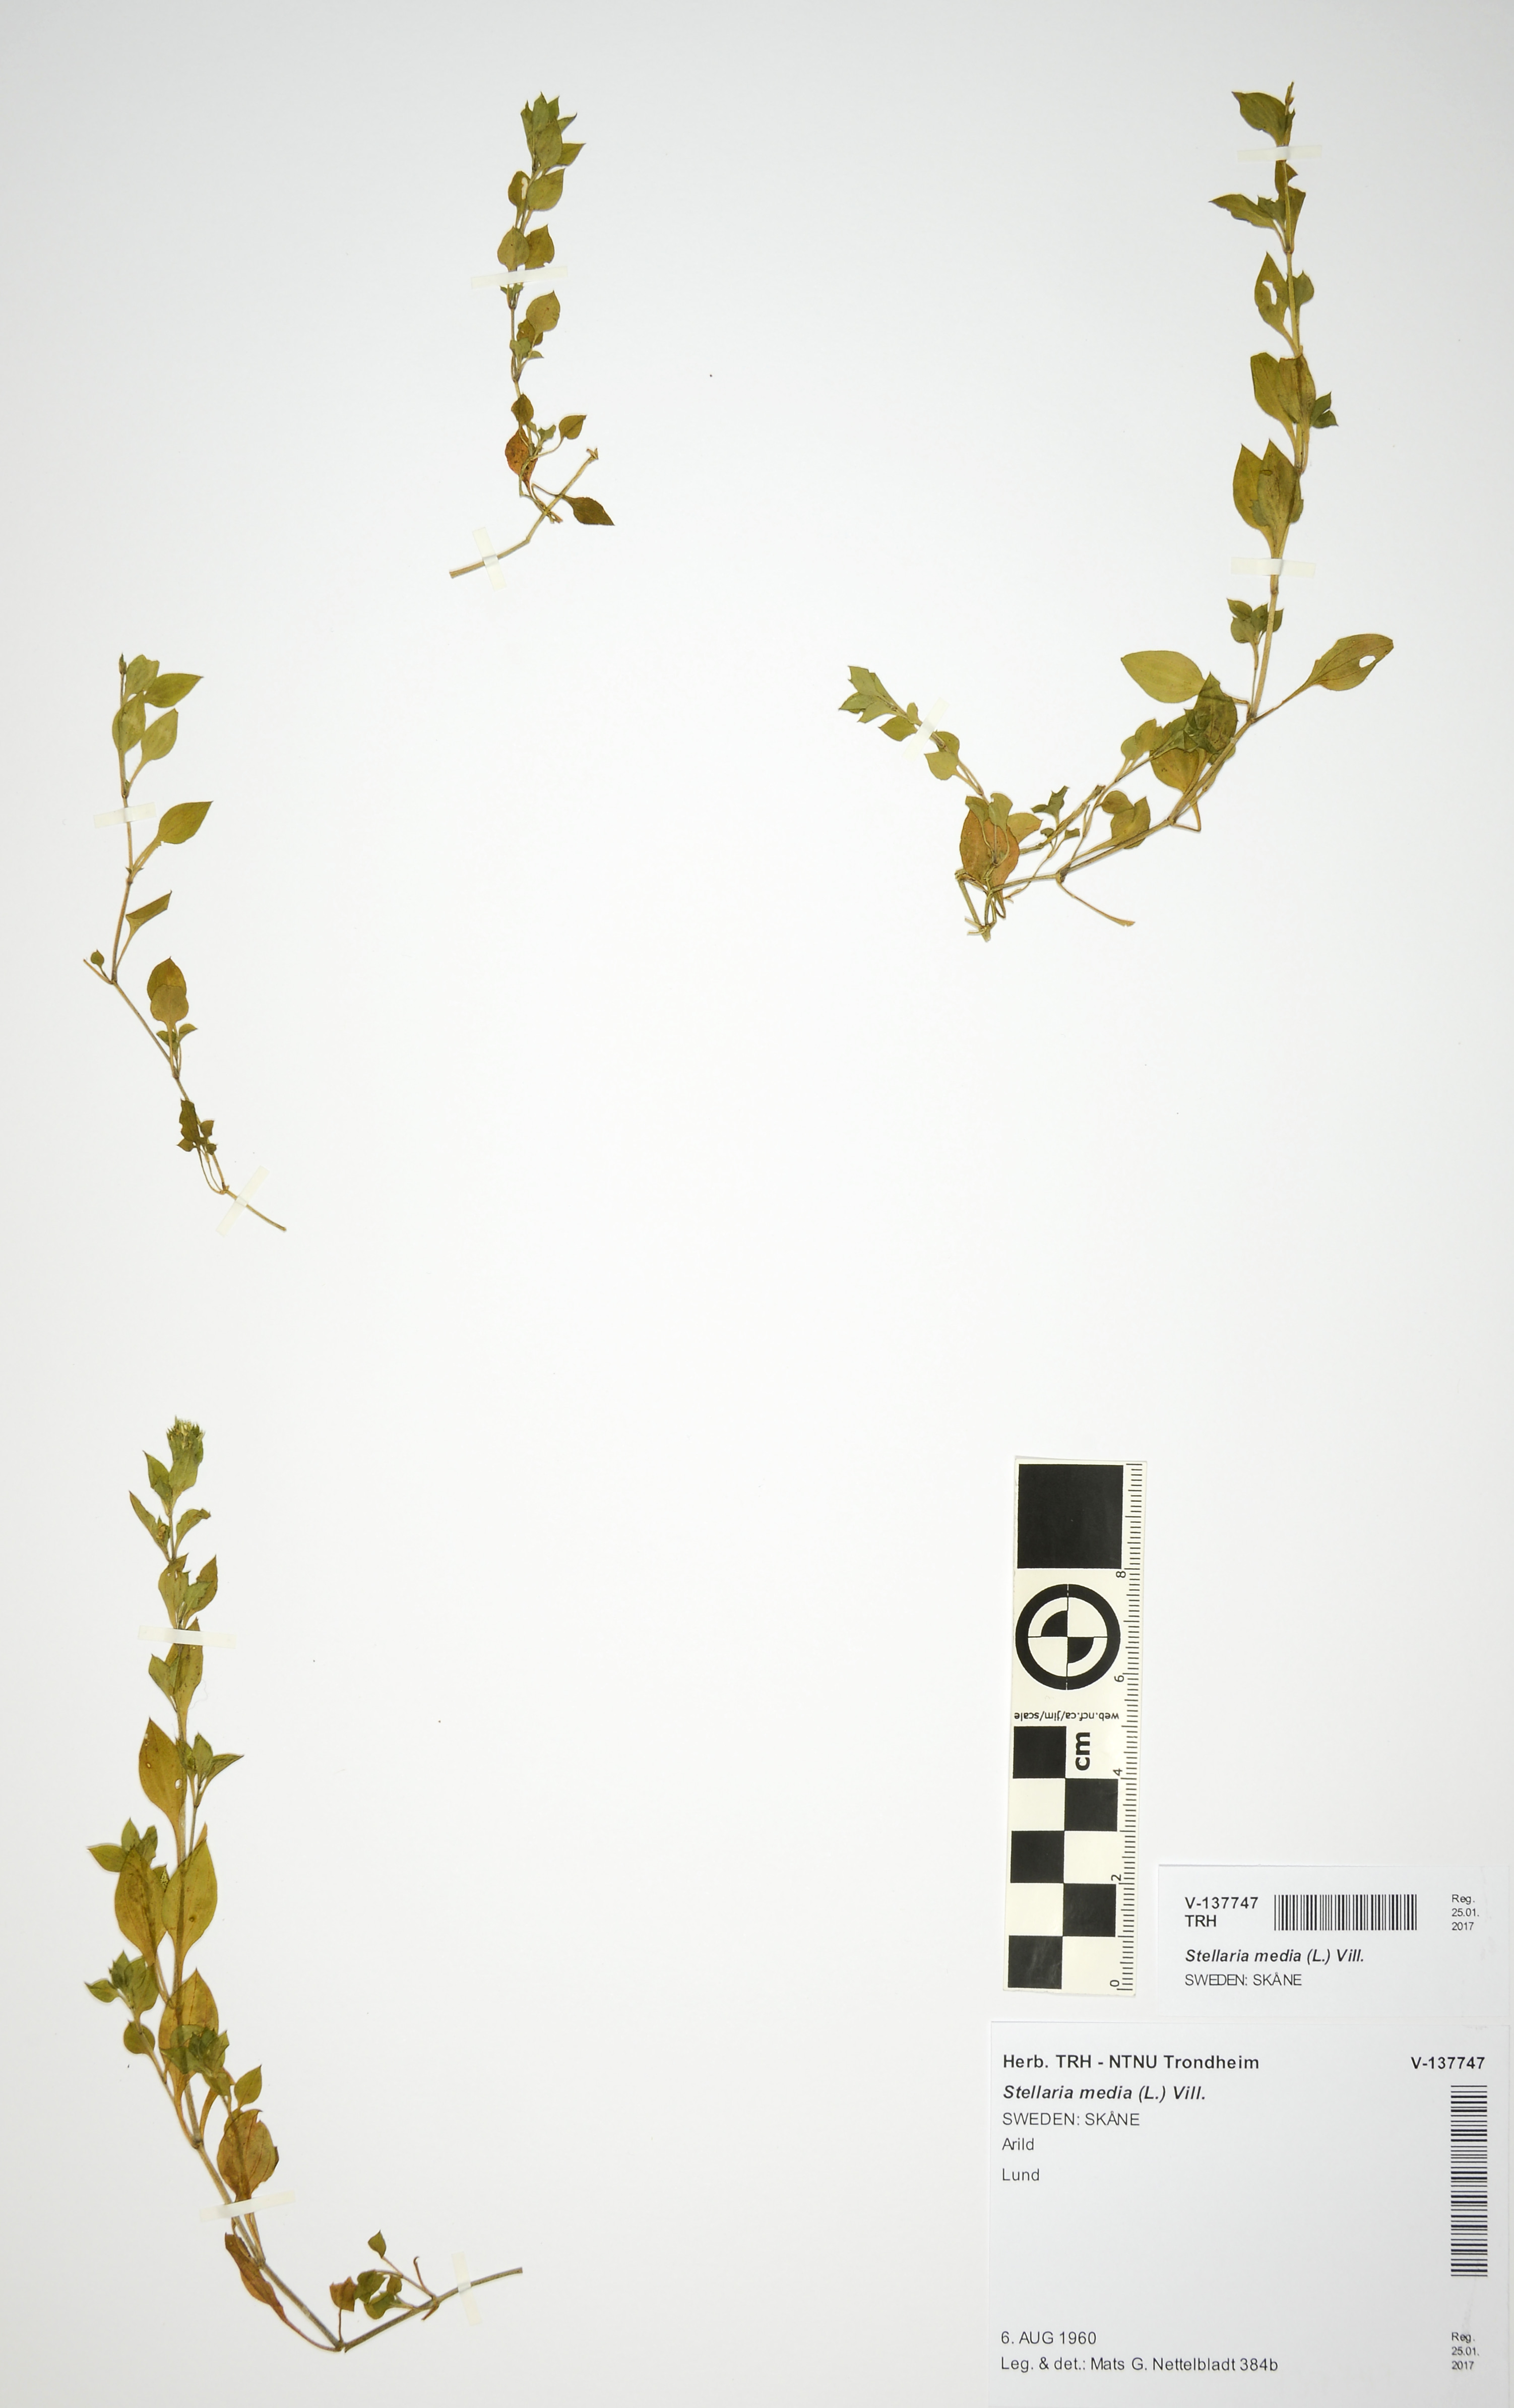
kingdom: Plantae
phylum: Tracheophyta
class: Magnoliopsida
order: Caryophyllales
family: Caryophyllaceae
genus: Stellaria
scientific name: Stellaria media
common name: Common chickweed
